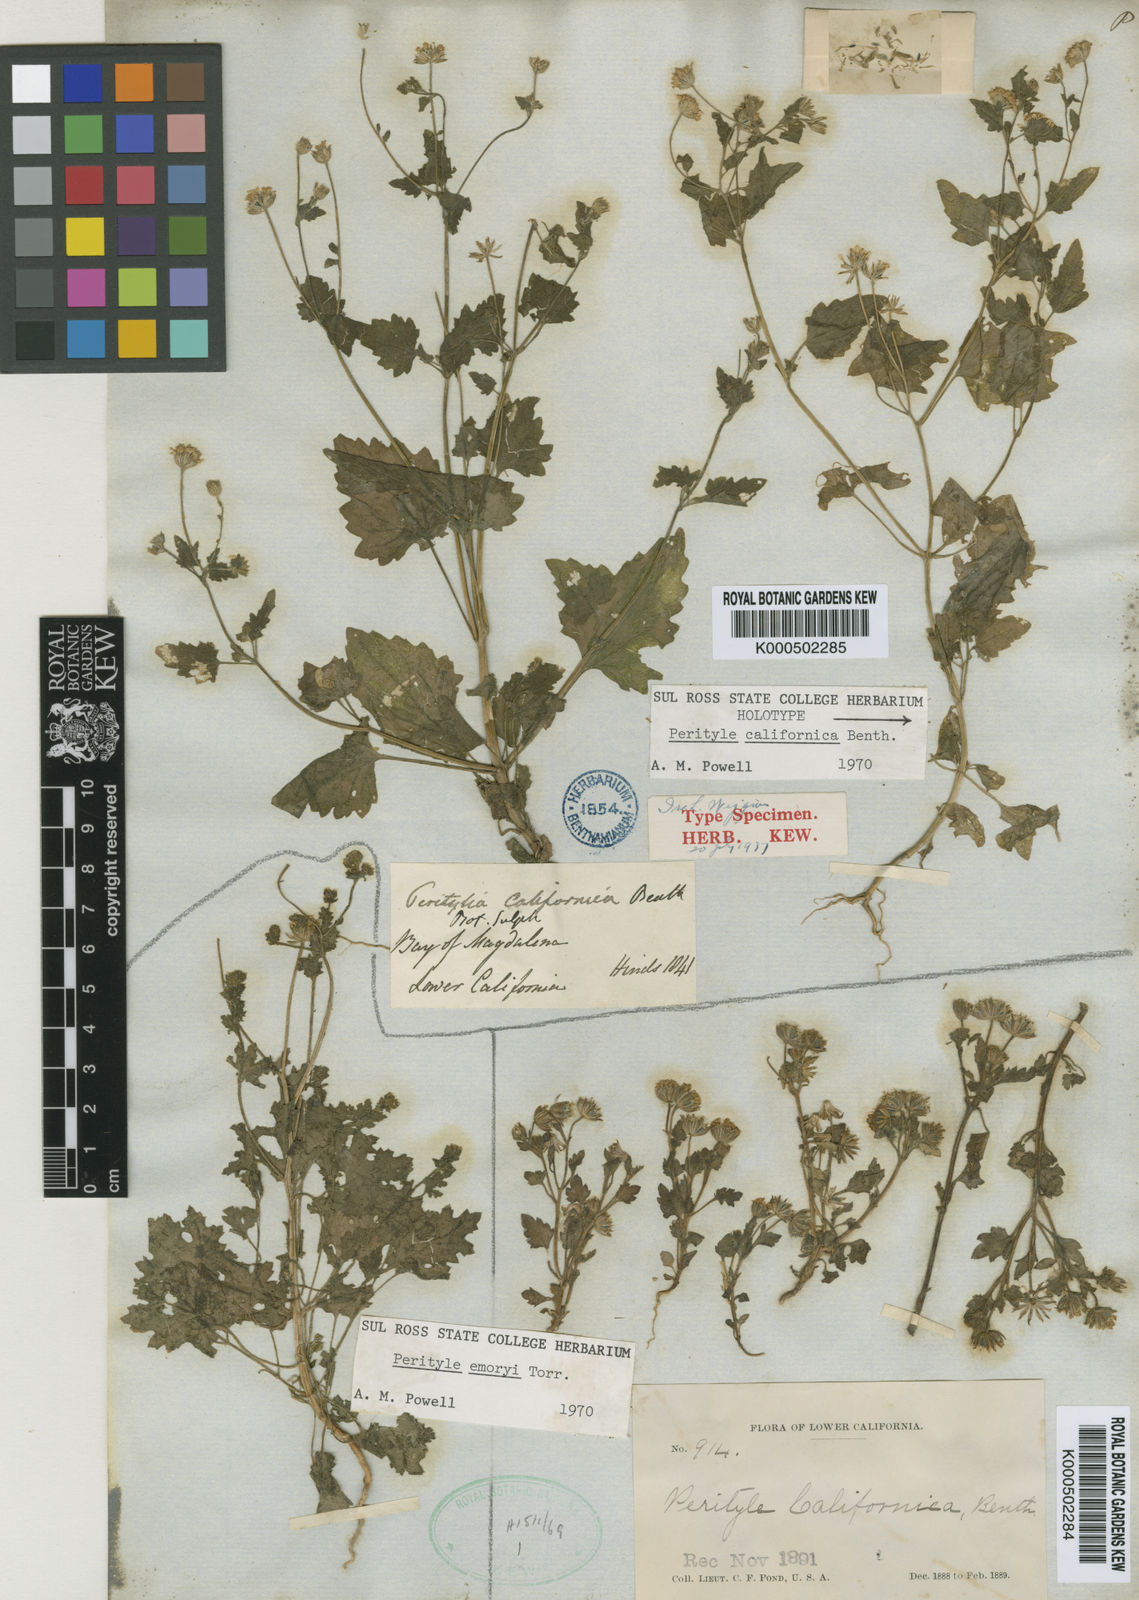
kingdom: Plantae
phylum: Tracheophyta
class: Magnoliopsida
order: Asterales
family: Asteraceae
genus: Perityle
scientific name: Perityle californica
